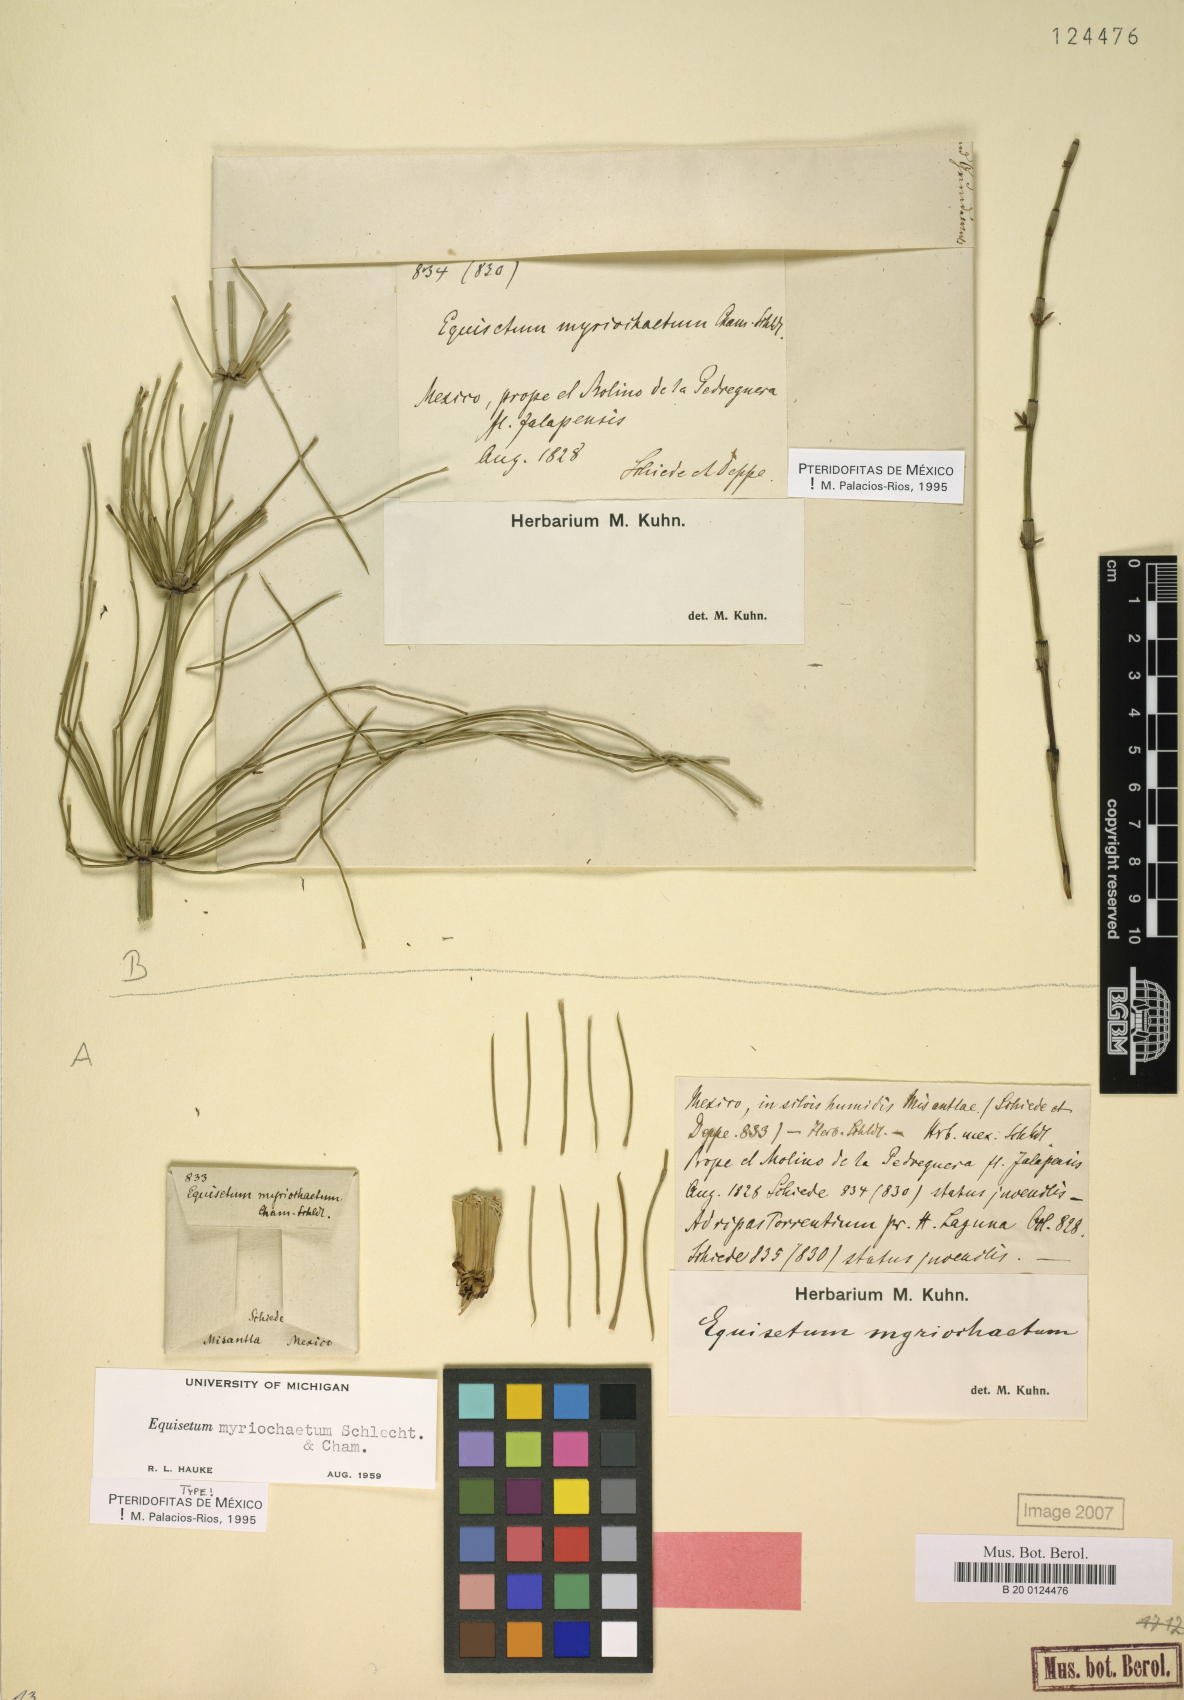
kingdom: Plantae
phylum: Tracheophyta
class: Polypodiopsida
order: Equisetales
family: Equisetaceae
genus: Equisetum
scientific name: Equisetum myriochaetum
